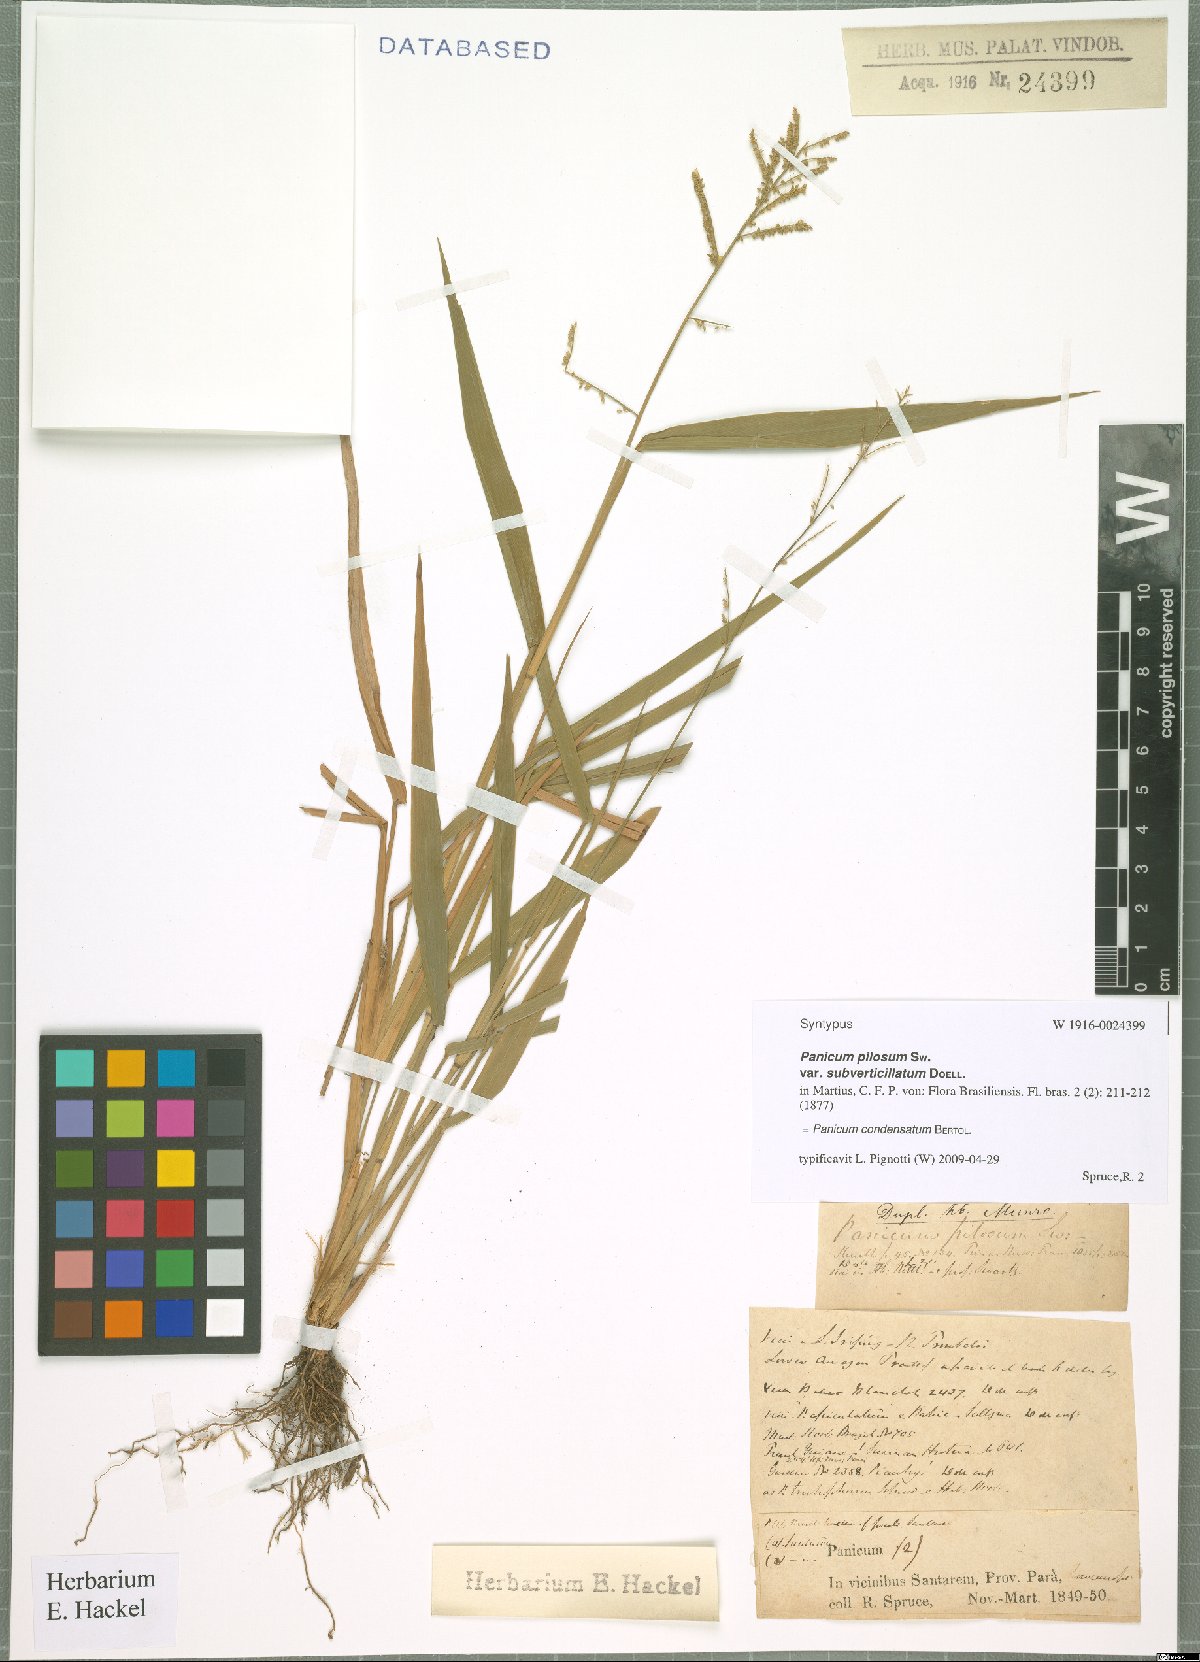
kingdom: Plantae
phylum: Tracheophyta
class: Liliopsida
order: Poales
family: Poaceae
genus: Hymenachne
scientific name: Hymenachne condensata
